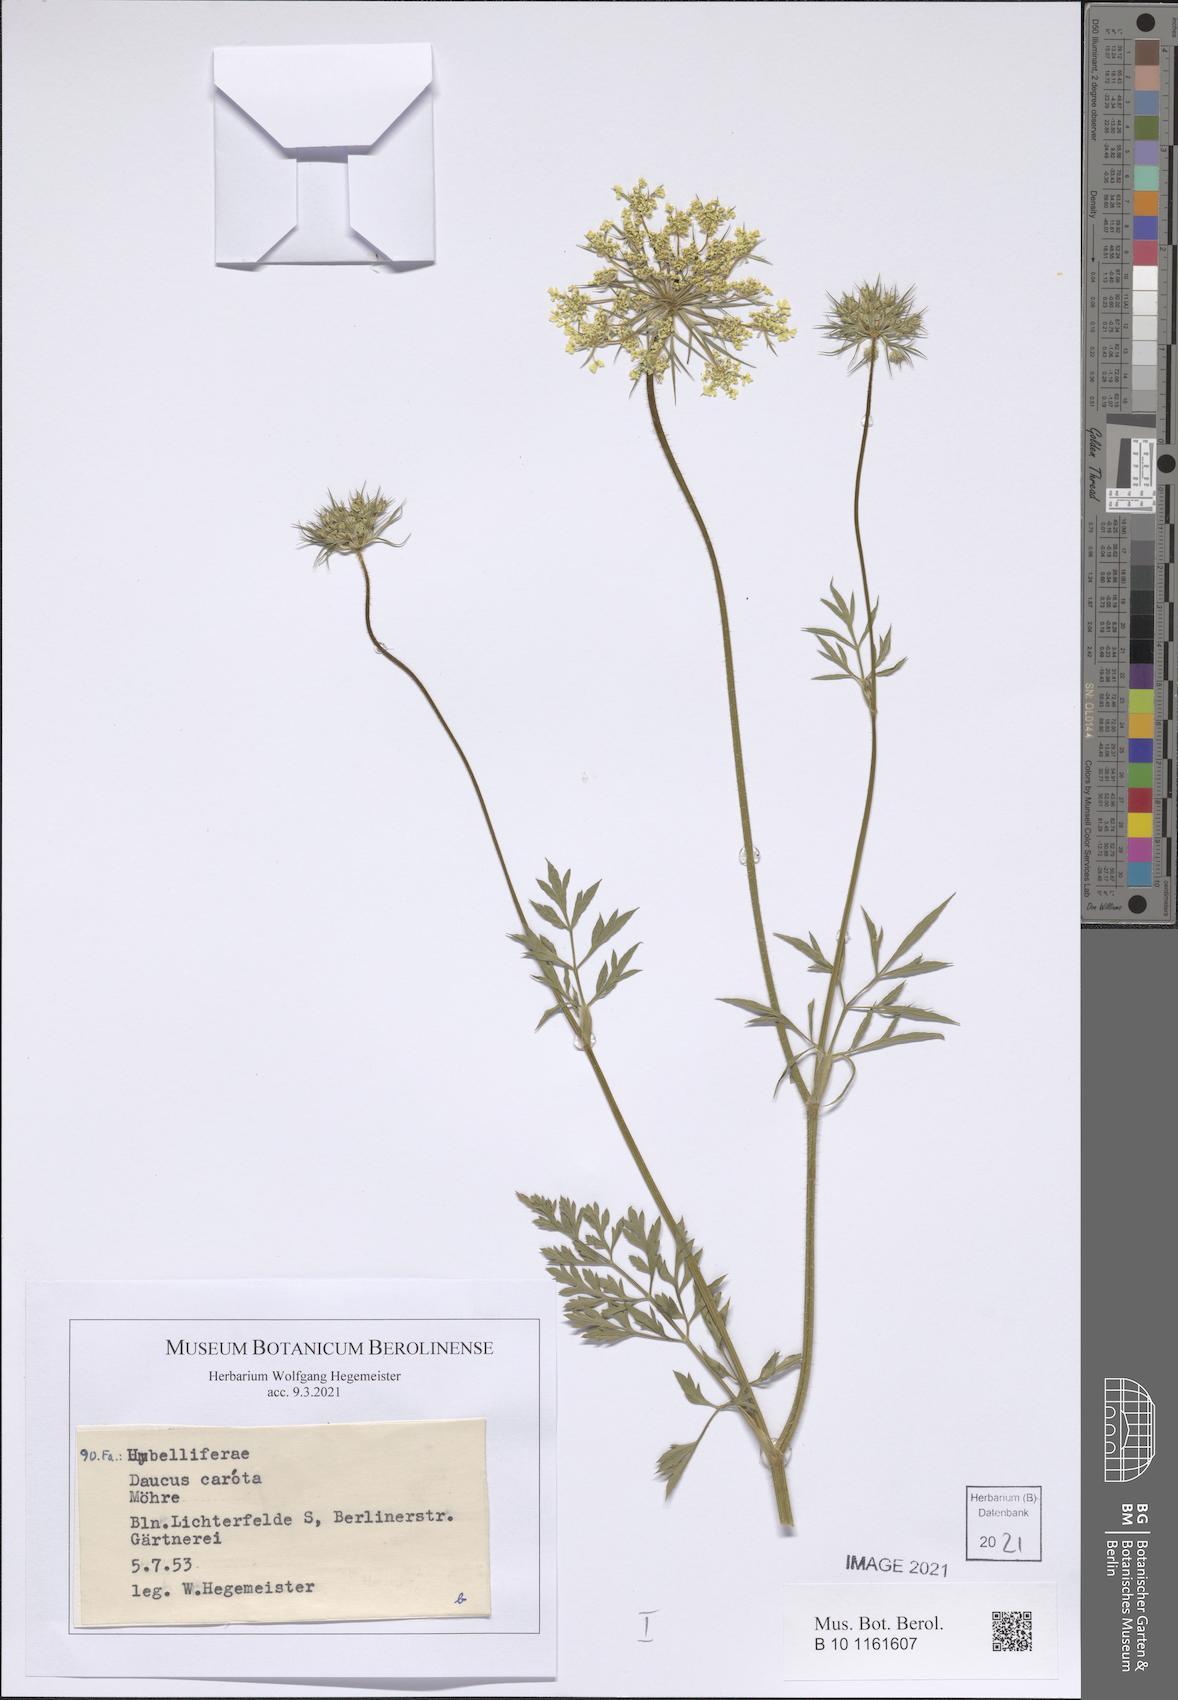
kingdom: Plantae
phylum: Tracheophyta
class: Magnoliopsida
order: Apiales
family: Apiaceae
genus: Daucus
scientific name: Daucus carota
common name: Wild carrot
